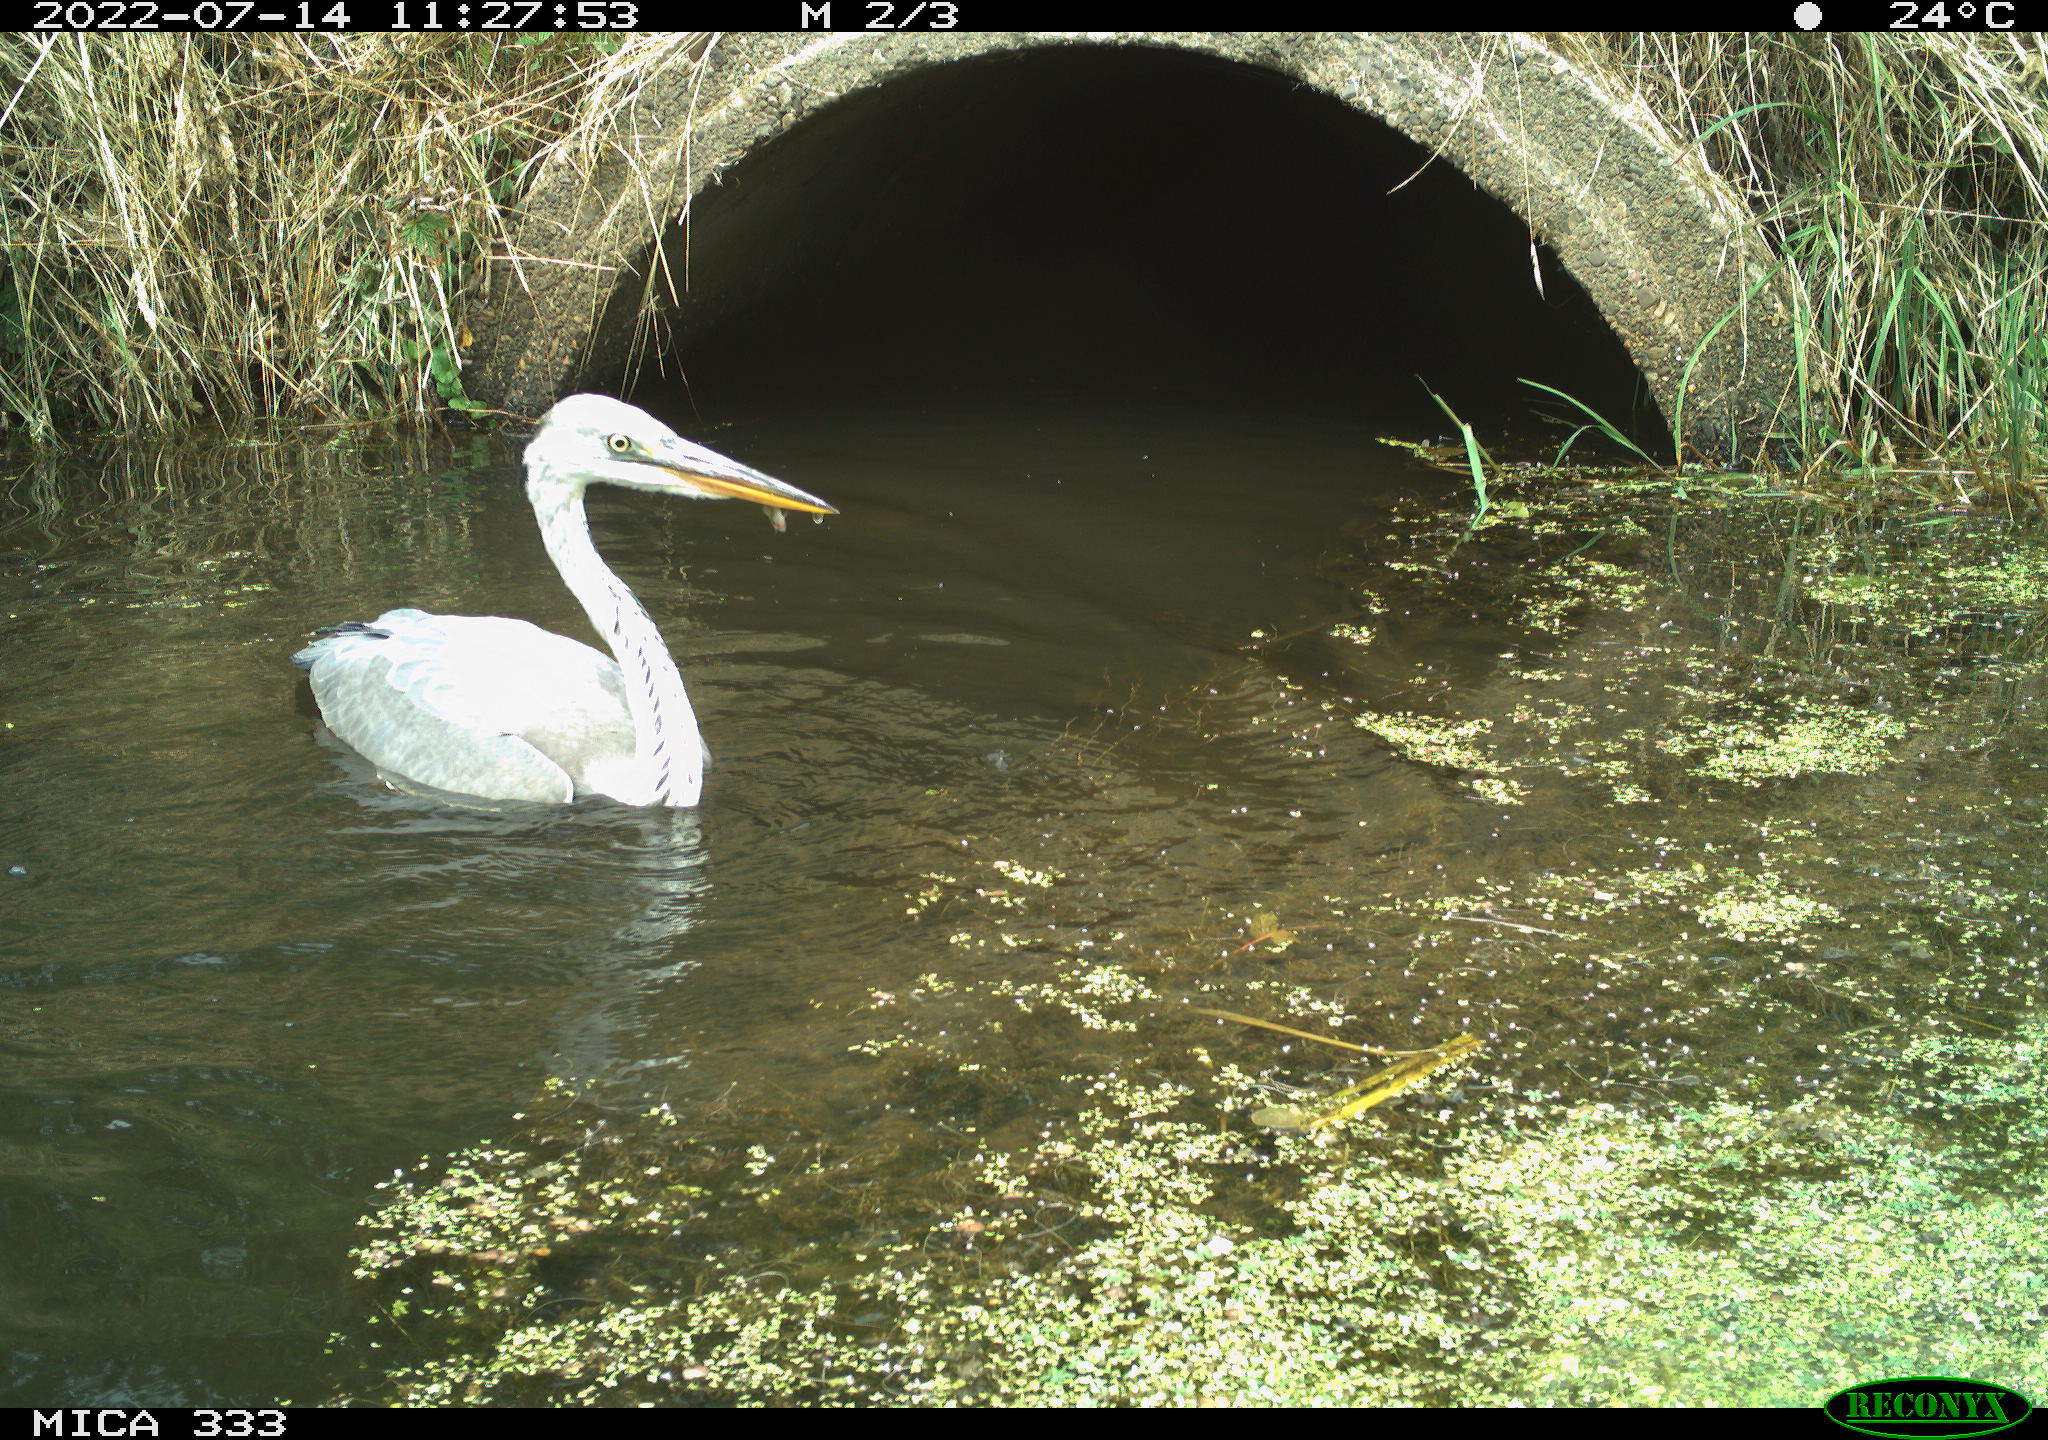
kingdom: Animalia
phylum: Chordata
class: Aves
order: Pelecaniformes
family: Ardeidae
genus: Ardea
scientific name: Ardea
